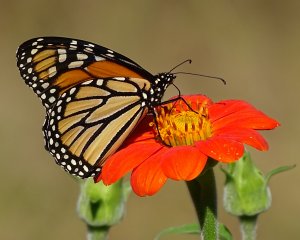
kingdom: Animalia
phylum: Arthropoda
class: Insecta
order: Lepidoptera
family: Nymphalidae
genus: Danaus
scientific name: Danaus plexippus
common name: Monarch
